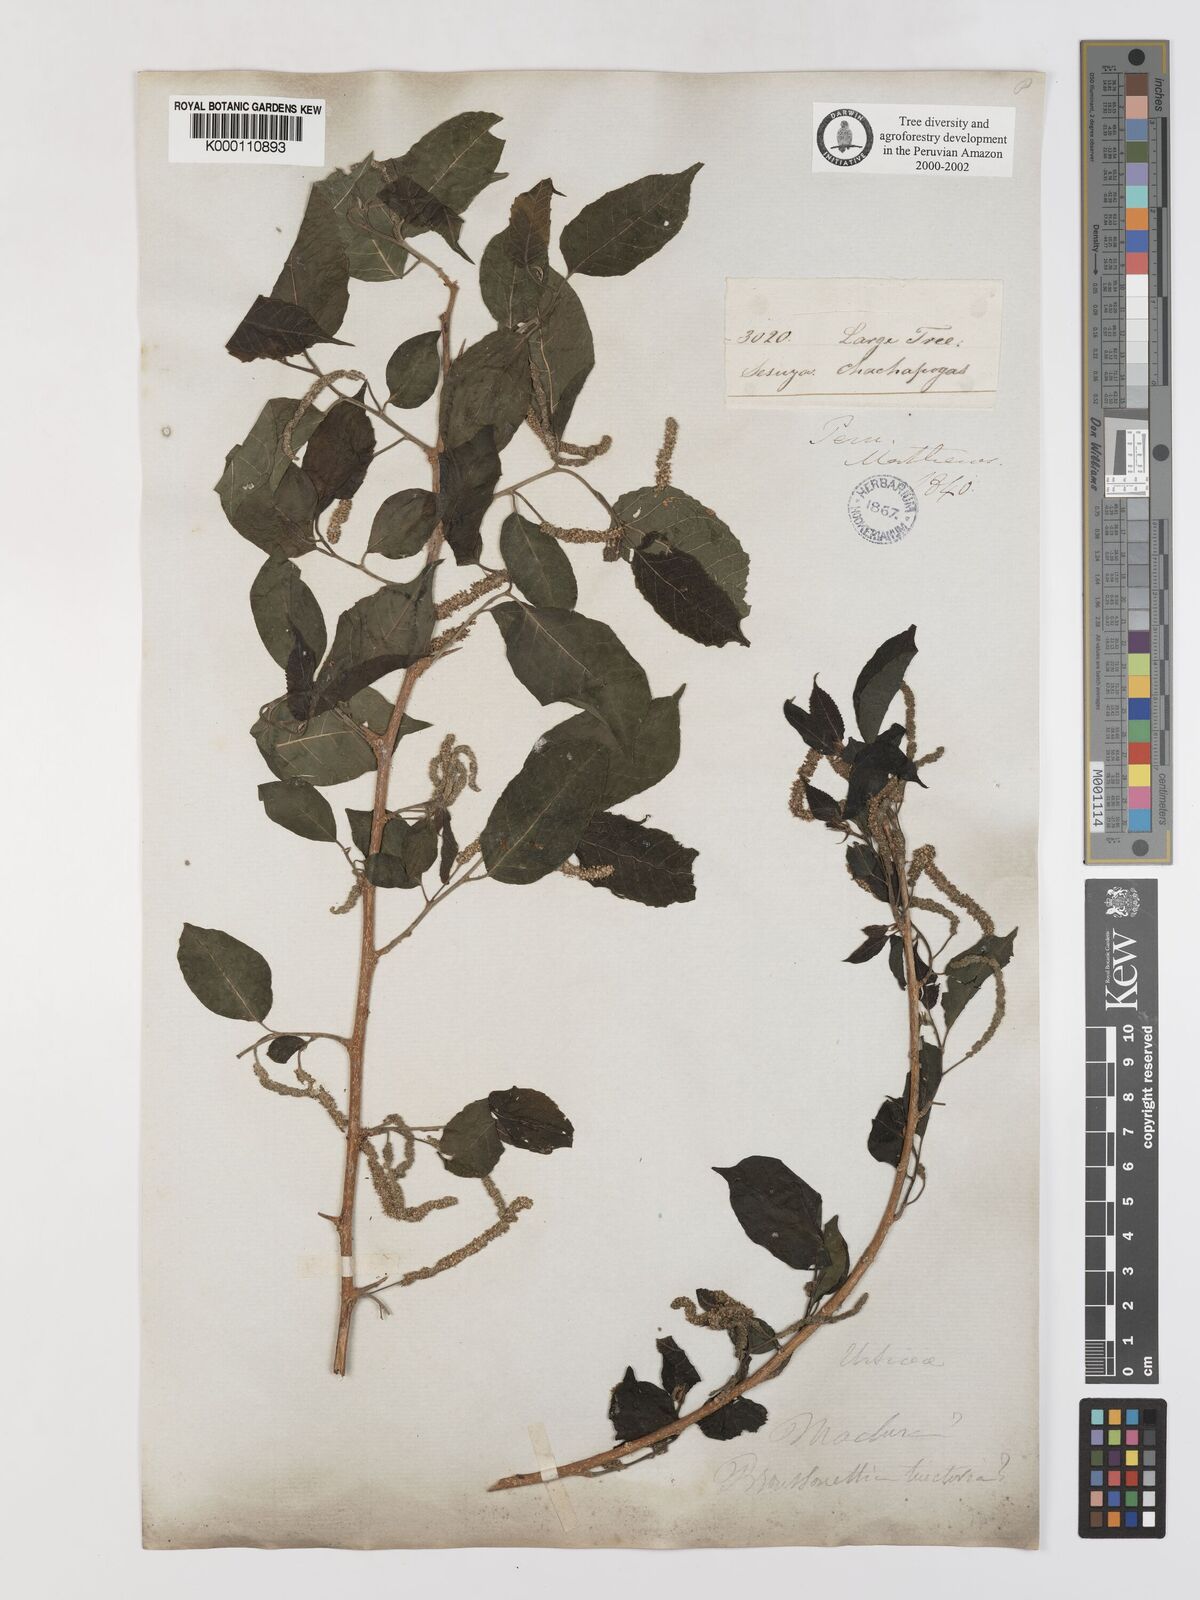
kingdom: Plantae
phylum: Tracheophyta
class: Magnoliopsida
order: Rosales
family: Moraceae
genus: Maclura
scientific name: Maclura tinctoria
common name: Old fustic
